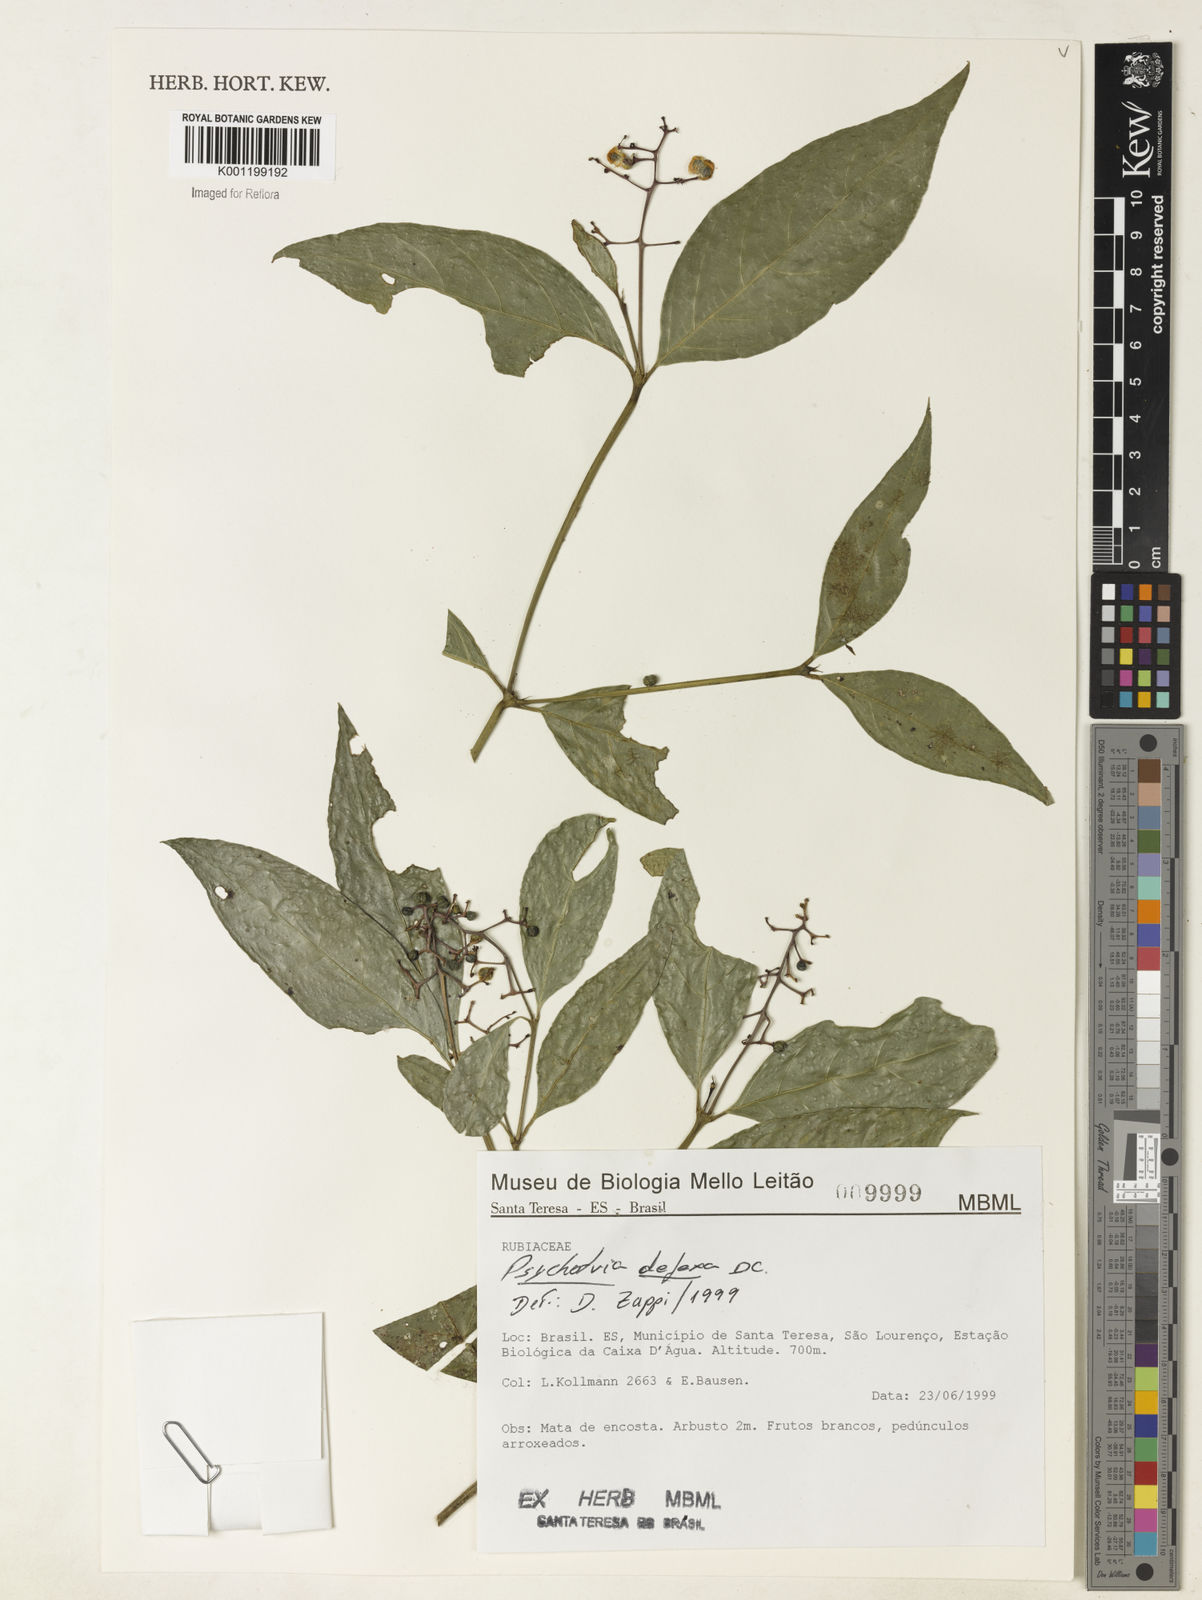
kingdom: Plantae
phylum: Tracheophyta
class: Magnoliopsida
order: Gentianales
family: Rubiaceae
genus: Palicourea
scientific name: Palicourea deflexa
